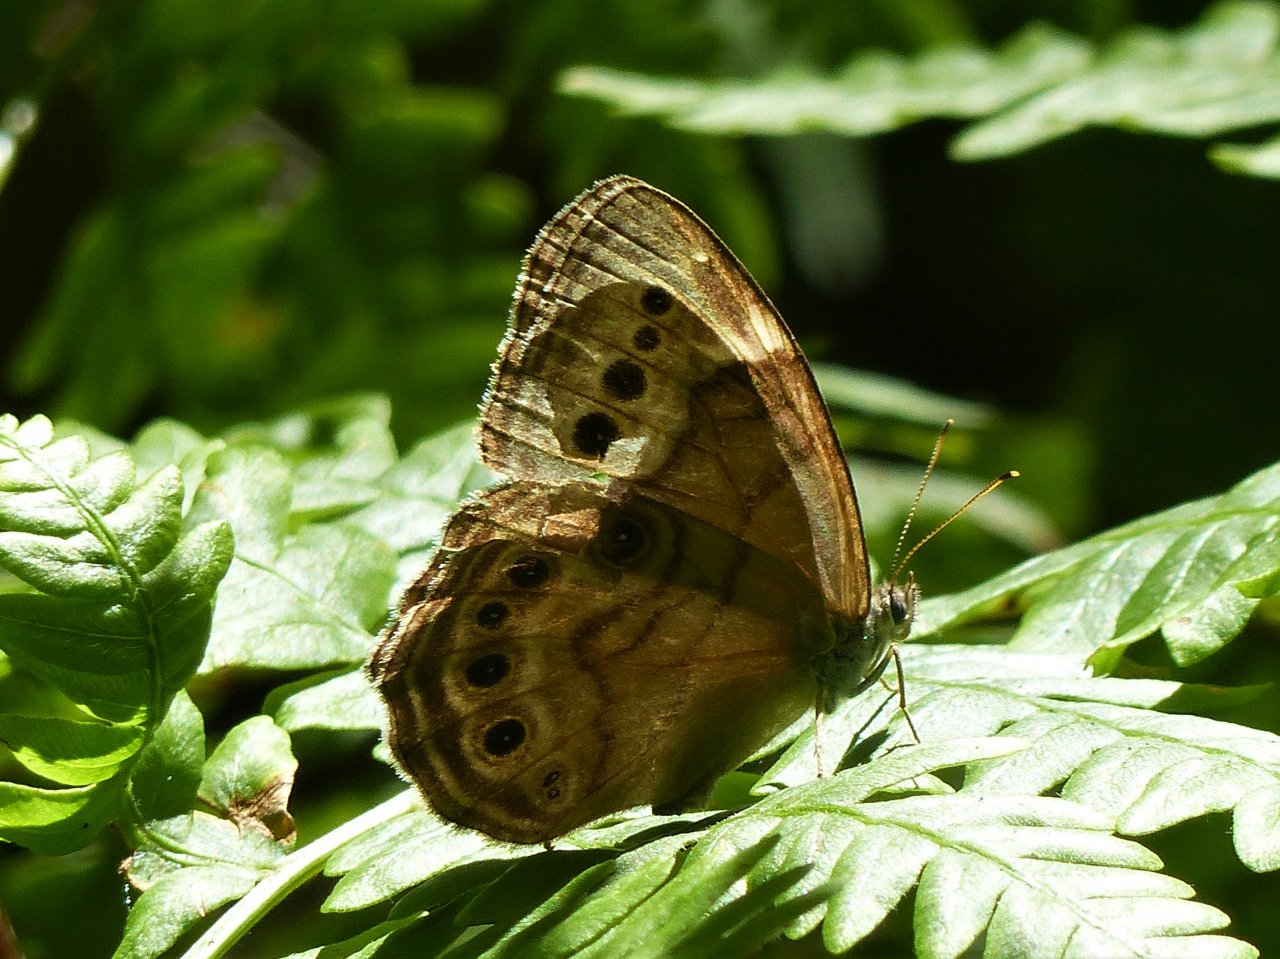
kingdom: Animalia
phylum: Arthropoda
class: Insecta
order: Lepidoptera
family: Nymphalidae
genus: Lethe
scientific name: Lethe anthedon
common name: Northern Pearly-Eye
